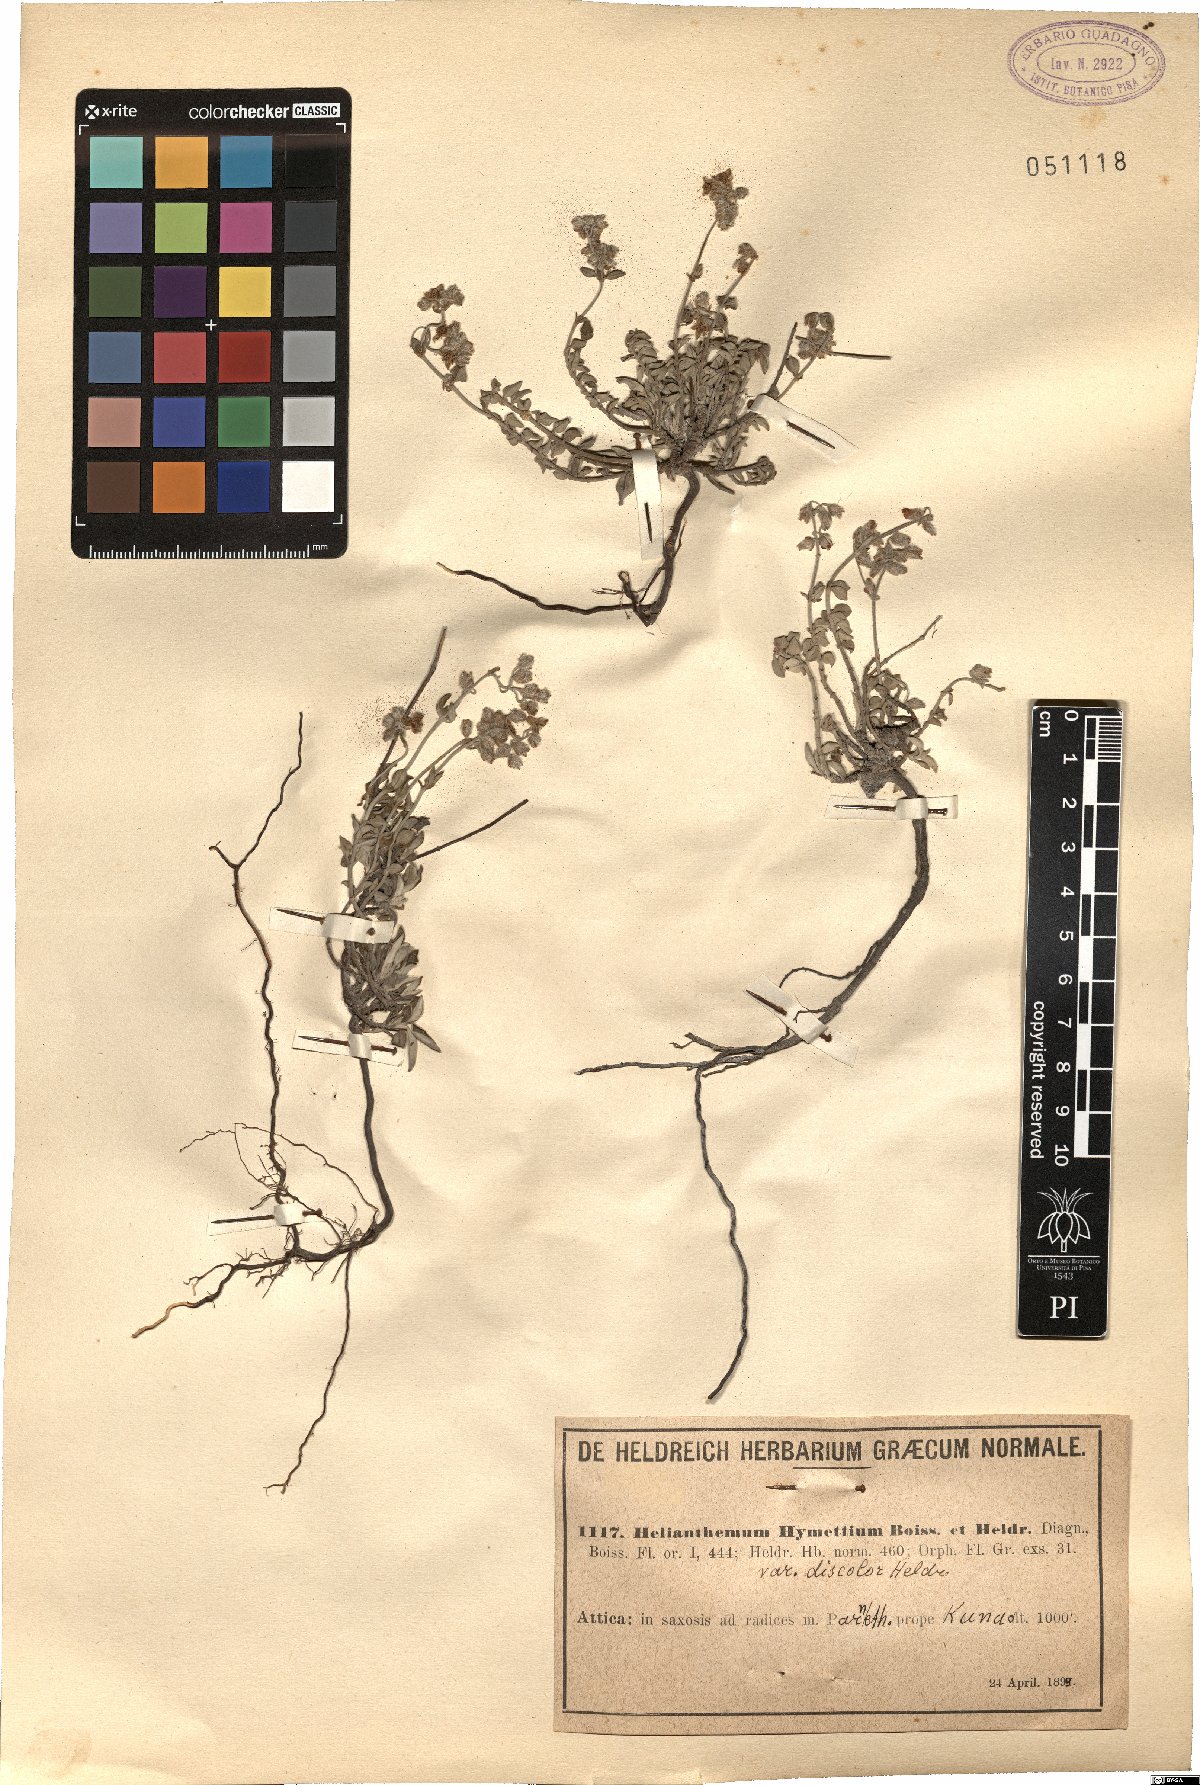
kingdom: Plantae
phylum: Tracheophyta
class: Magnoliopsida
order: Malvales
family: Cistaceae
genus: Helianthemum
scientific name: Helianthemum hymettium
